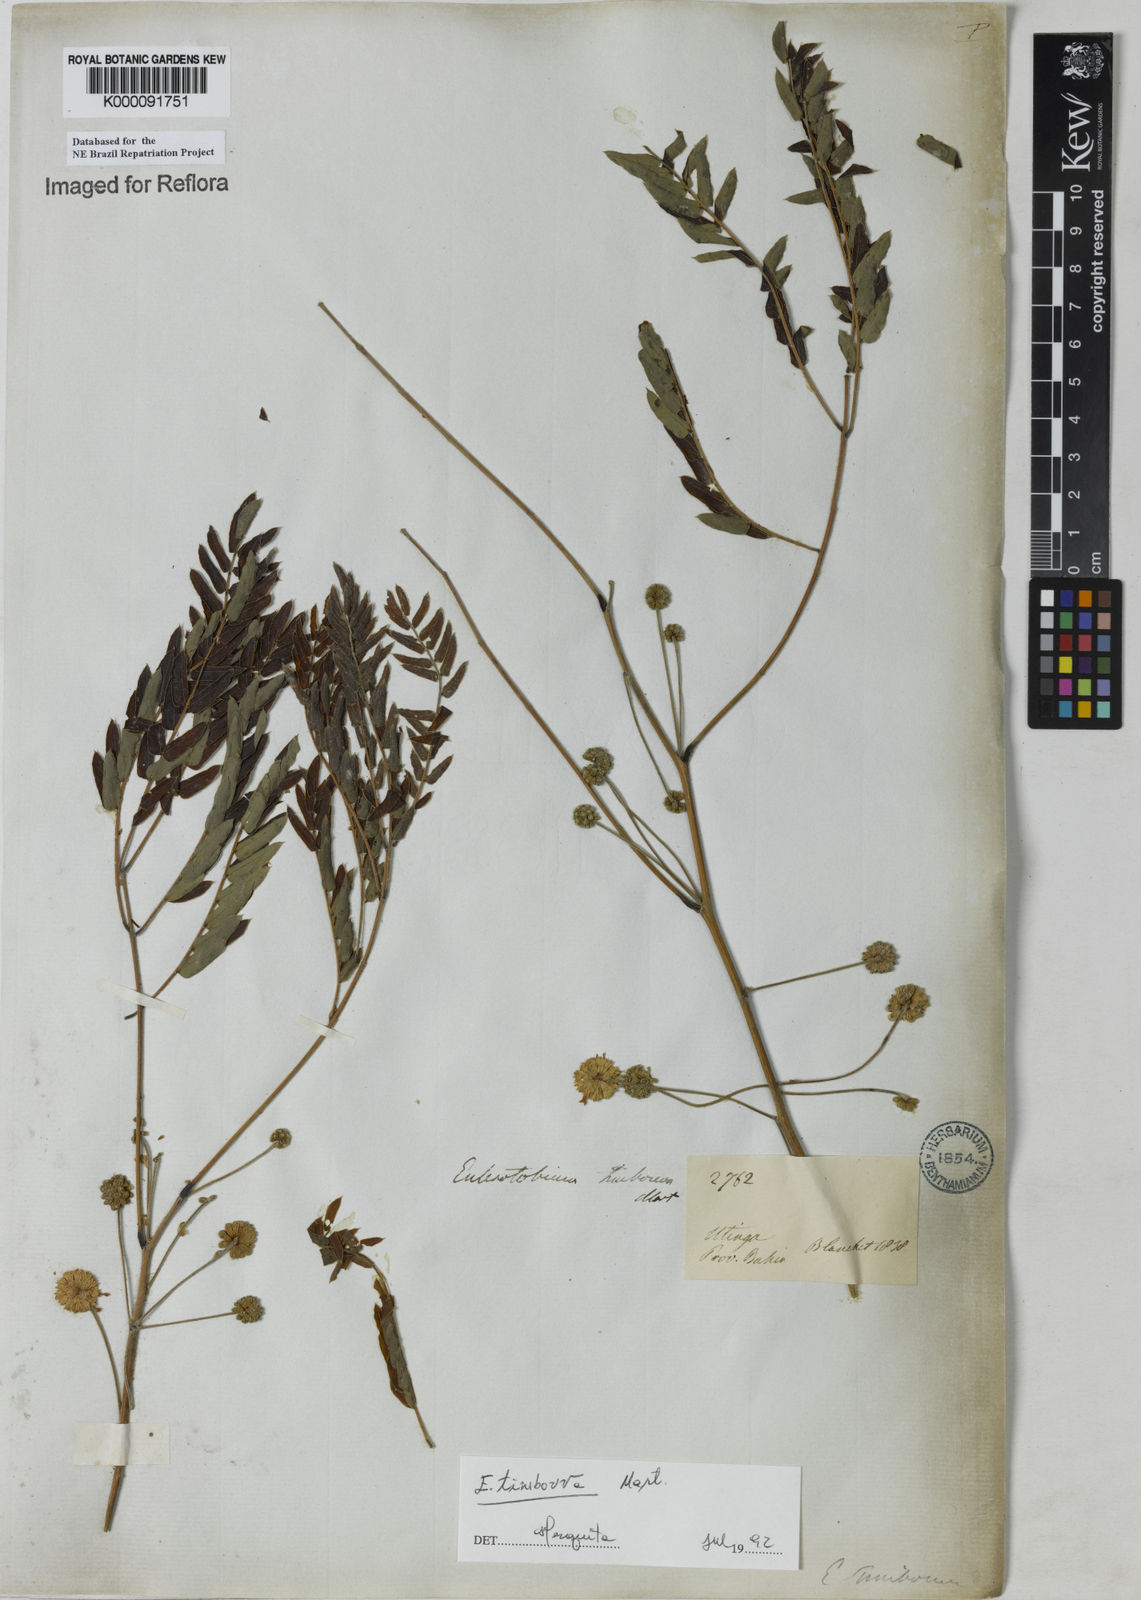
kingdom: Plantae
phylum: Tracheophyta
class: Magnoliopsida
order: Fabales
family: Fabaceae
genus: Enterolobium
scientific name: Enterolobium timbouva
